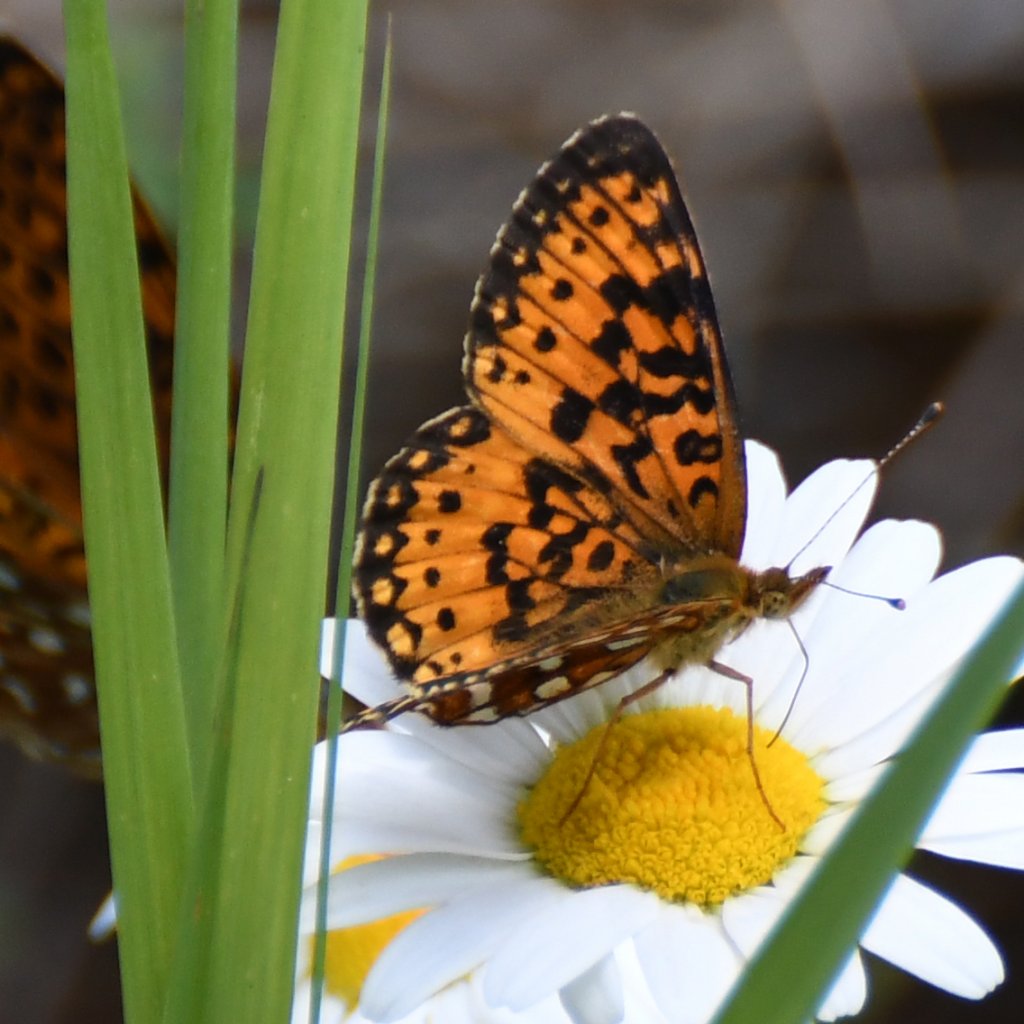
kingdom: Animalia
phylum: Arthropoda
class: Insecta
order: Lepidoptera
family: Nymphalidae
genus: Boloria
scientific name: Boloria selene
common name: Silver-bordered Fritillary
